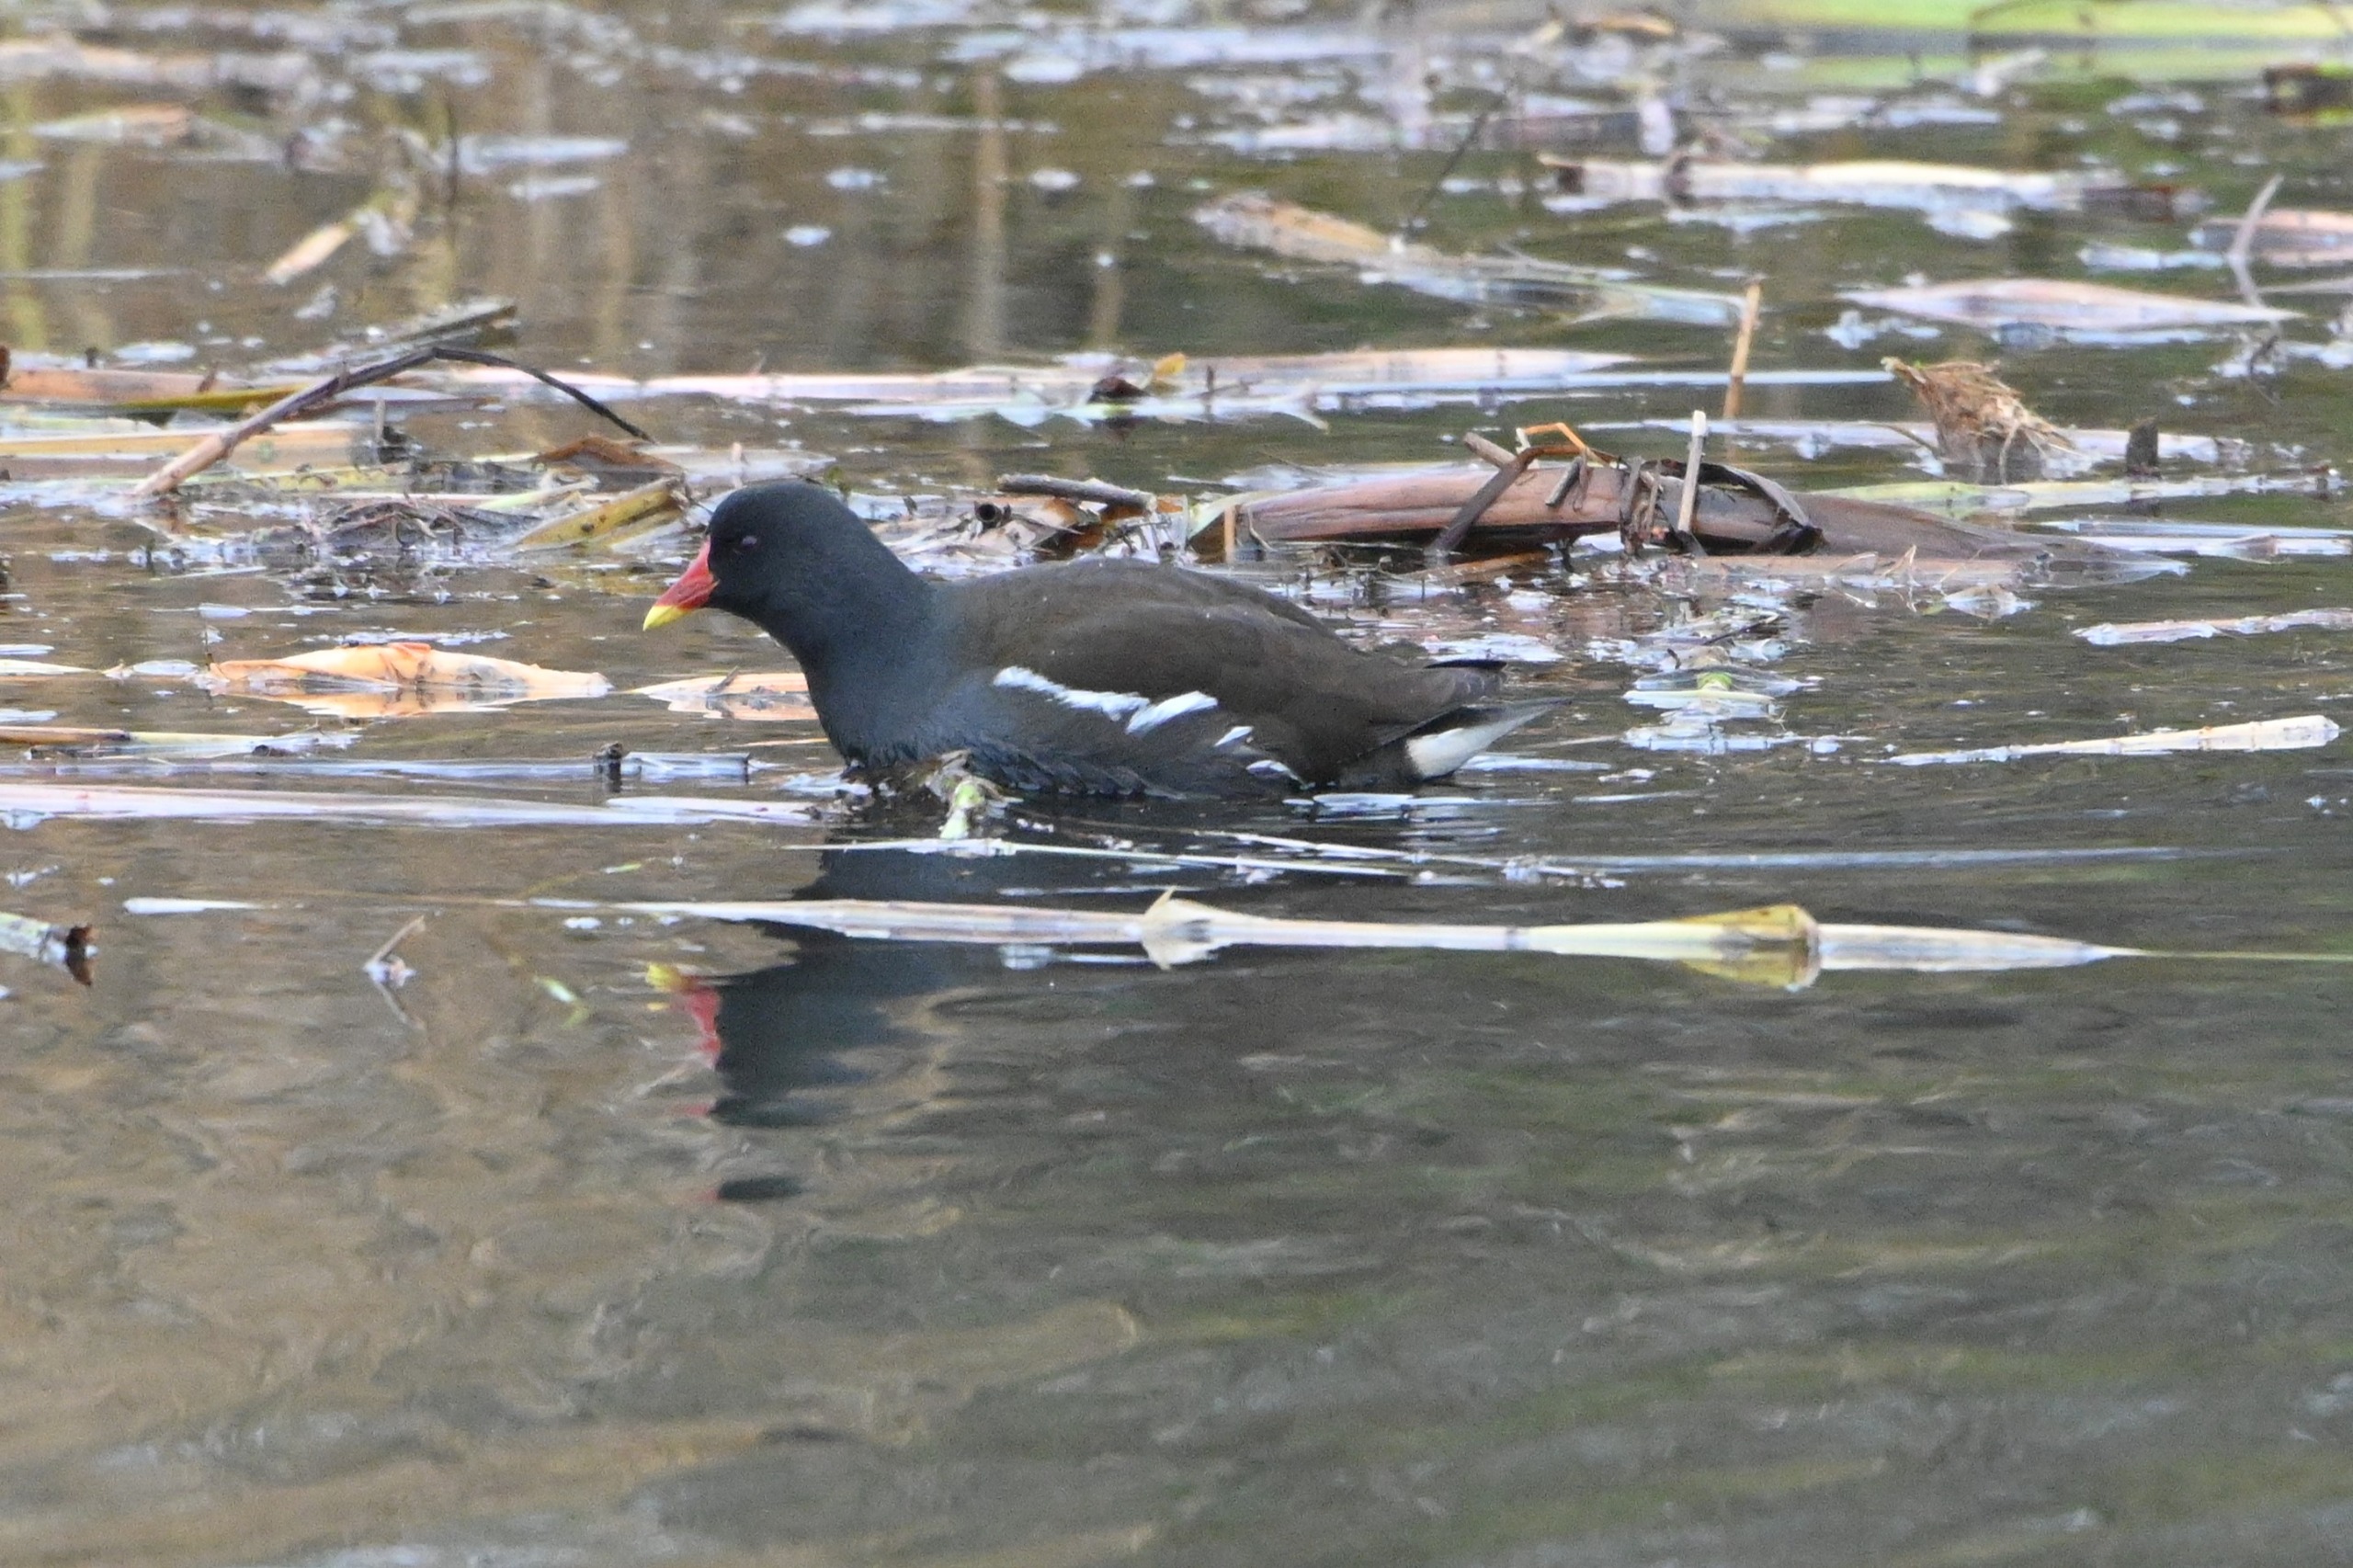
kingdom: Animalia
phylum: Chordata
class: Aves
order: Gruiformes
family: Rallidae
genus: Gallinula
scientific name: Gallinula chloropus
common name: Grønbenet rørhøne
